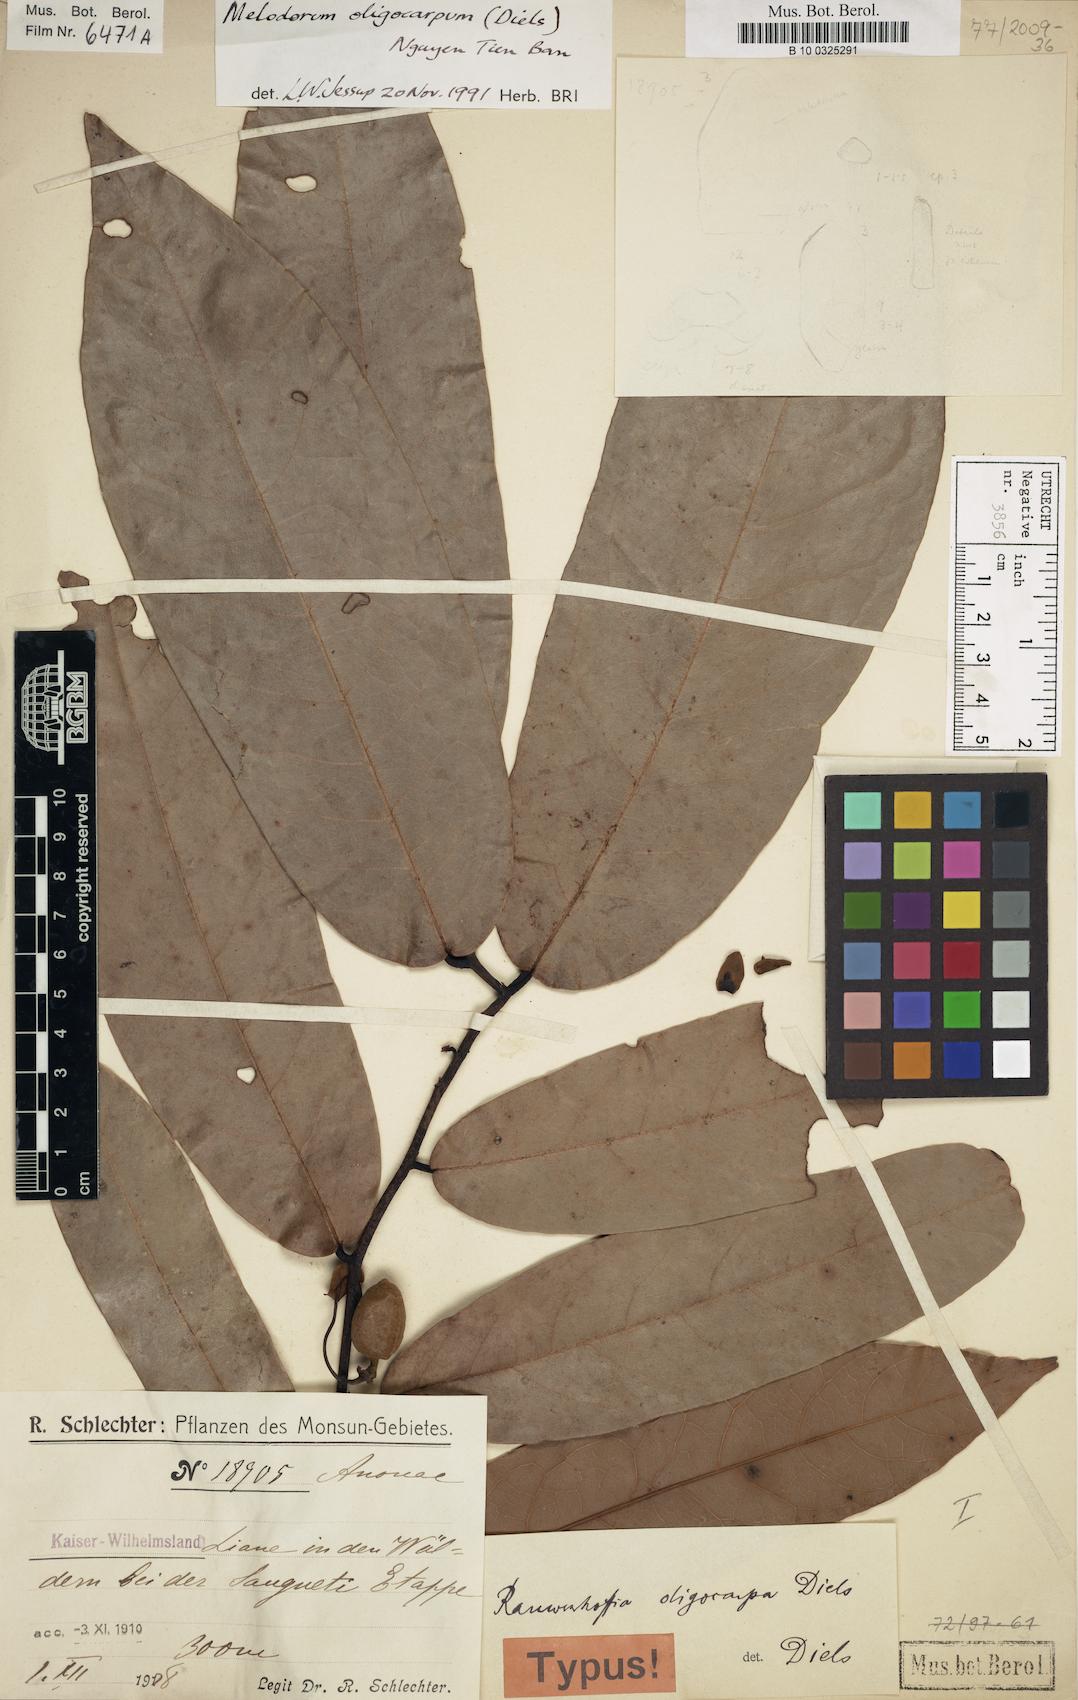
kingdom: Plantae
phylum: Tracheophyta
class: Magnoliopsida
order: Magnoliales
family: Annonaceae
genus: Uvaria
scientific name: Uvaria oligocarpa
